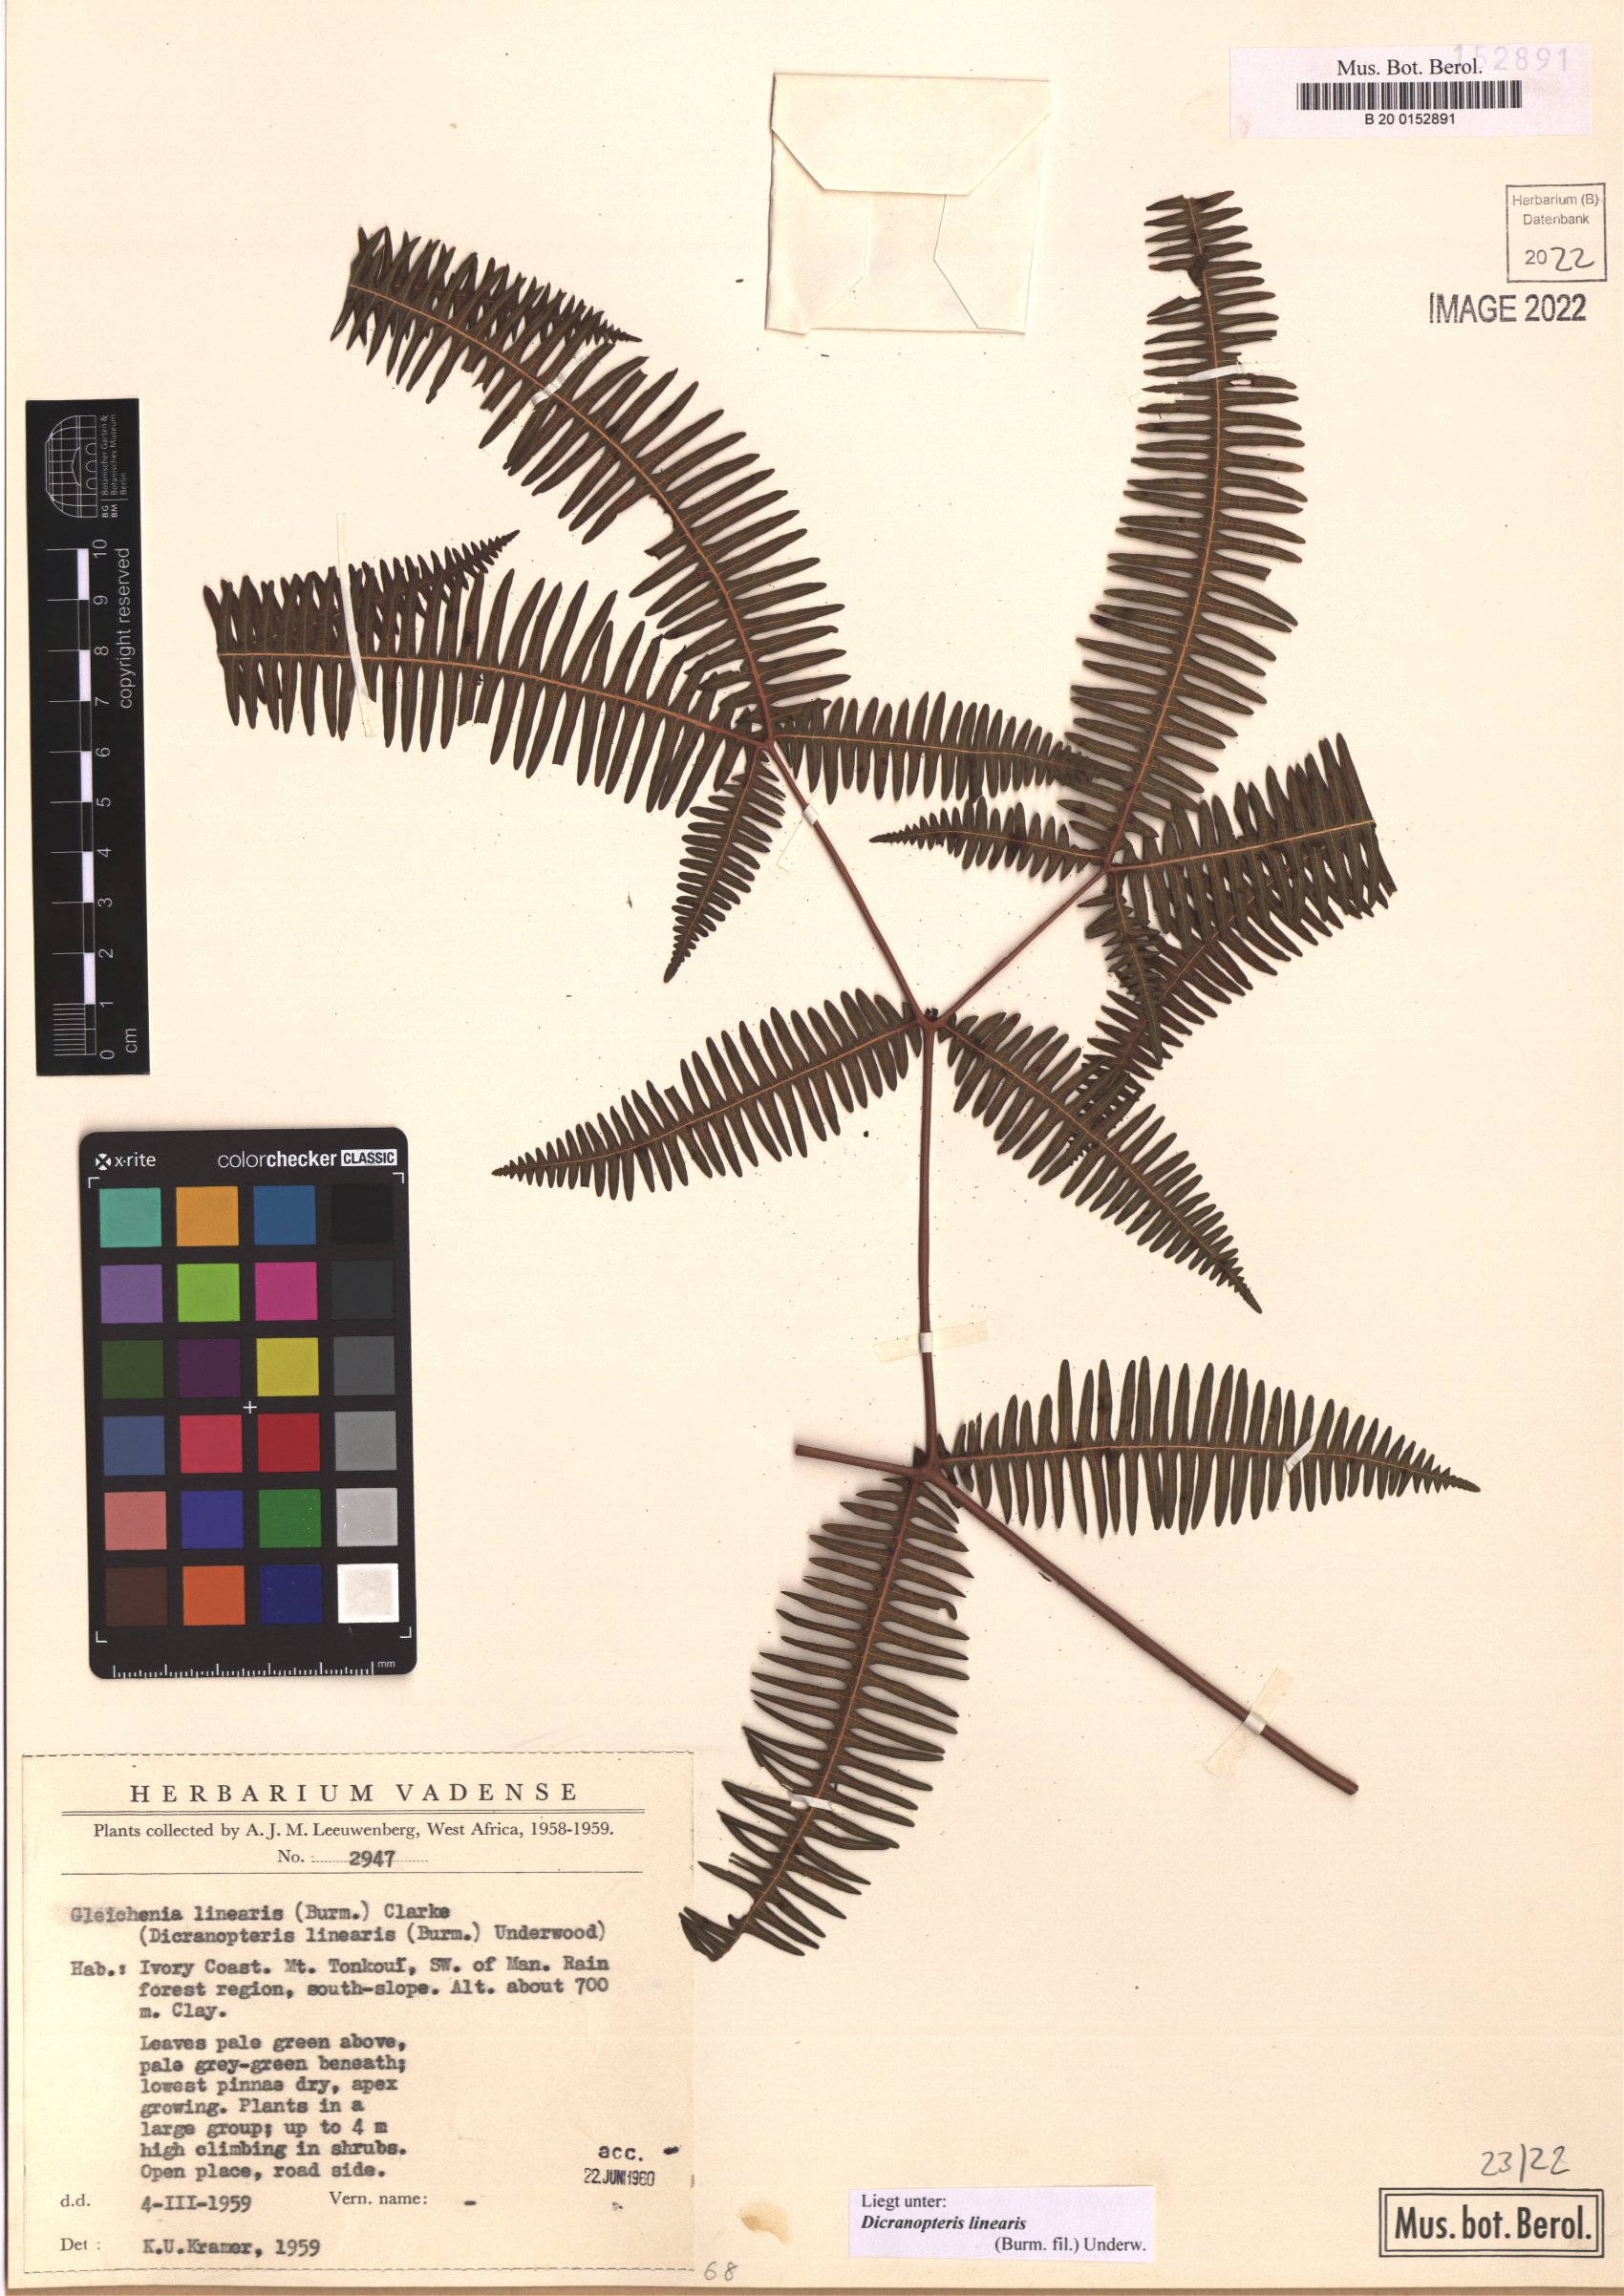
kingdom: Plantae
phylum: Tracheophyta
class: Polypodiopsida
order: Gleicheniales
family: Gleicheniaceae
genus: Dicranopteris
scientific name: Dicranopteris linearis
